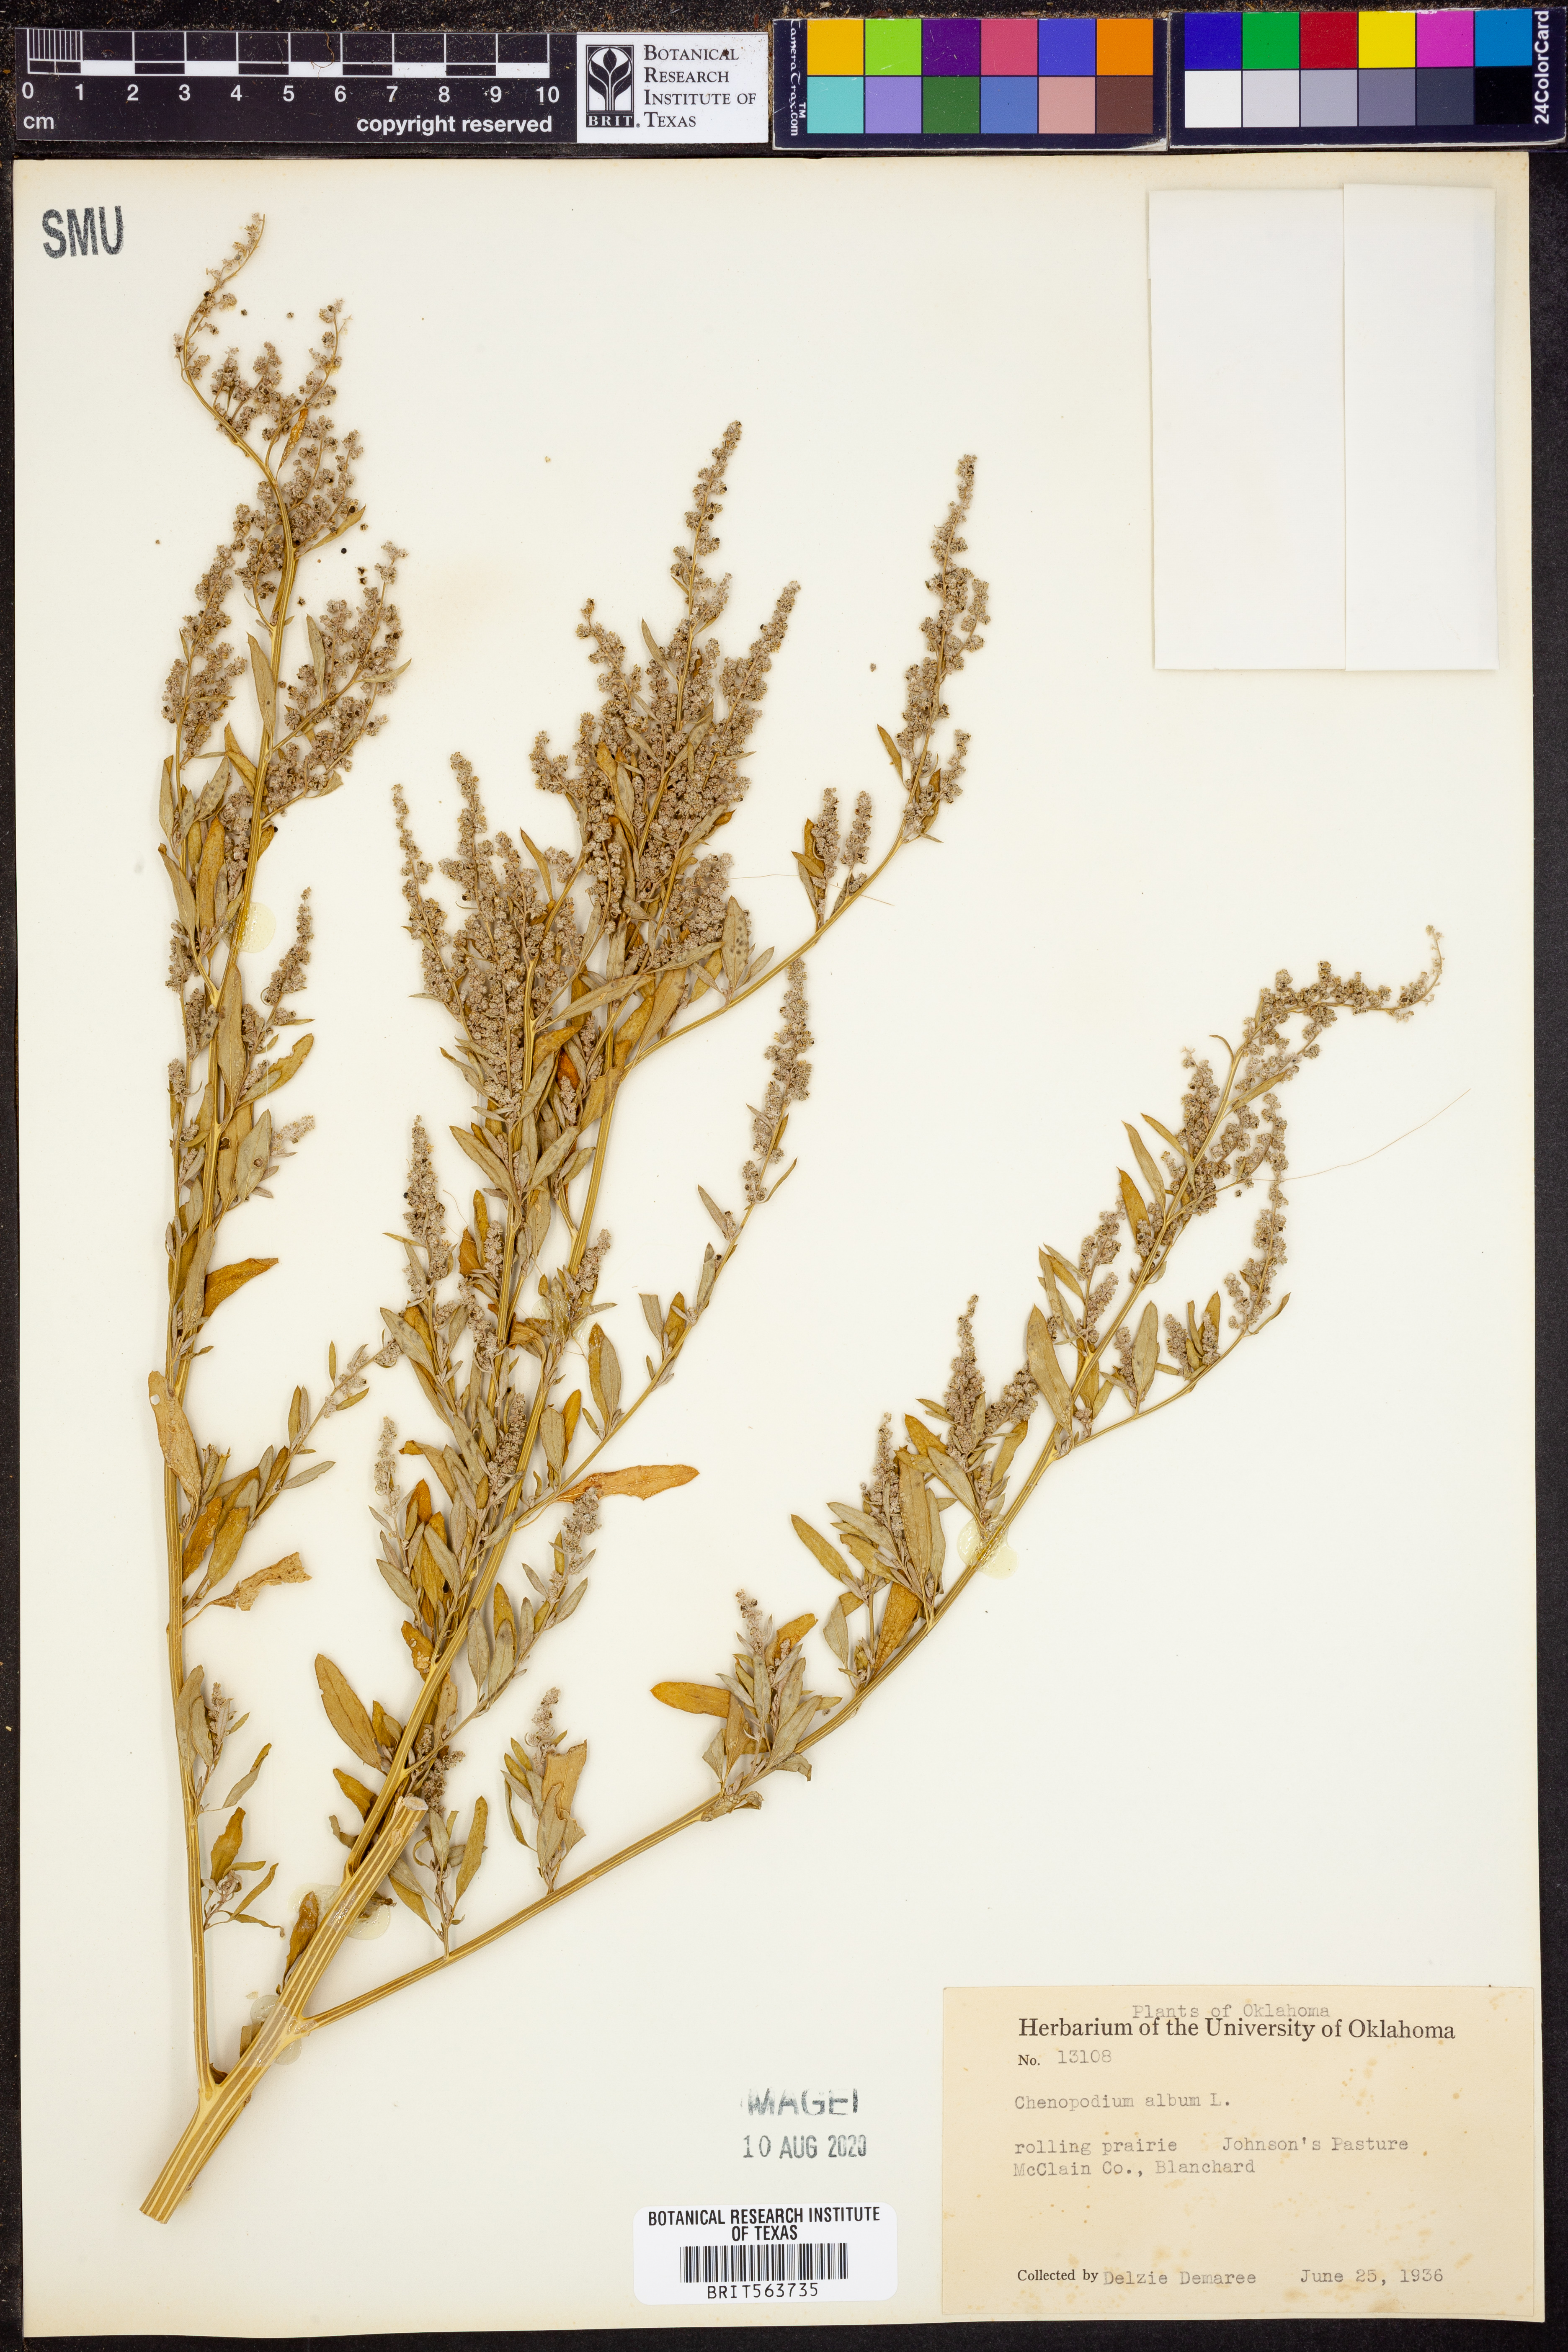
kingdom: Plantae
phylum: Tracheophyta
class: Magnoliopsida
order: Caryophyllales
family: Amaranthaceae
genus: Chenopodium
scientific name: Chenopodium album
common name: Fat-hen
